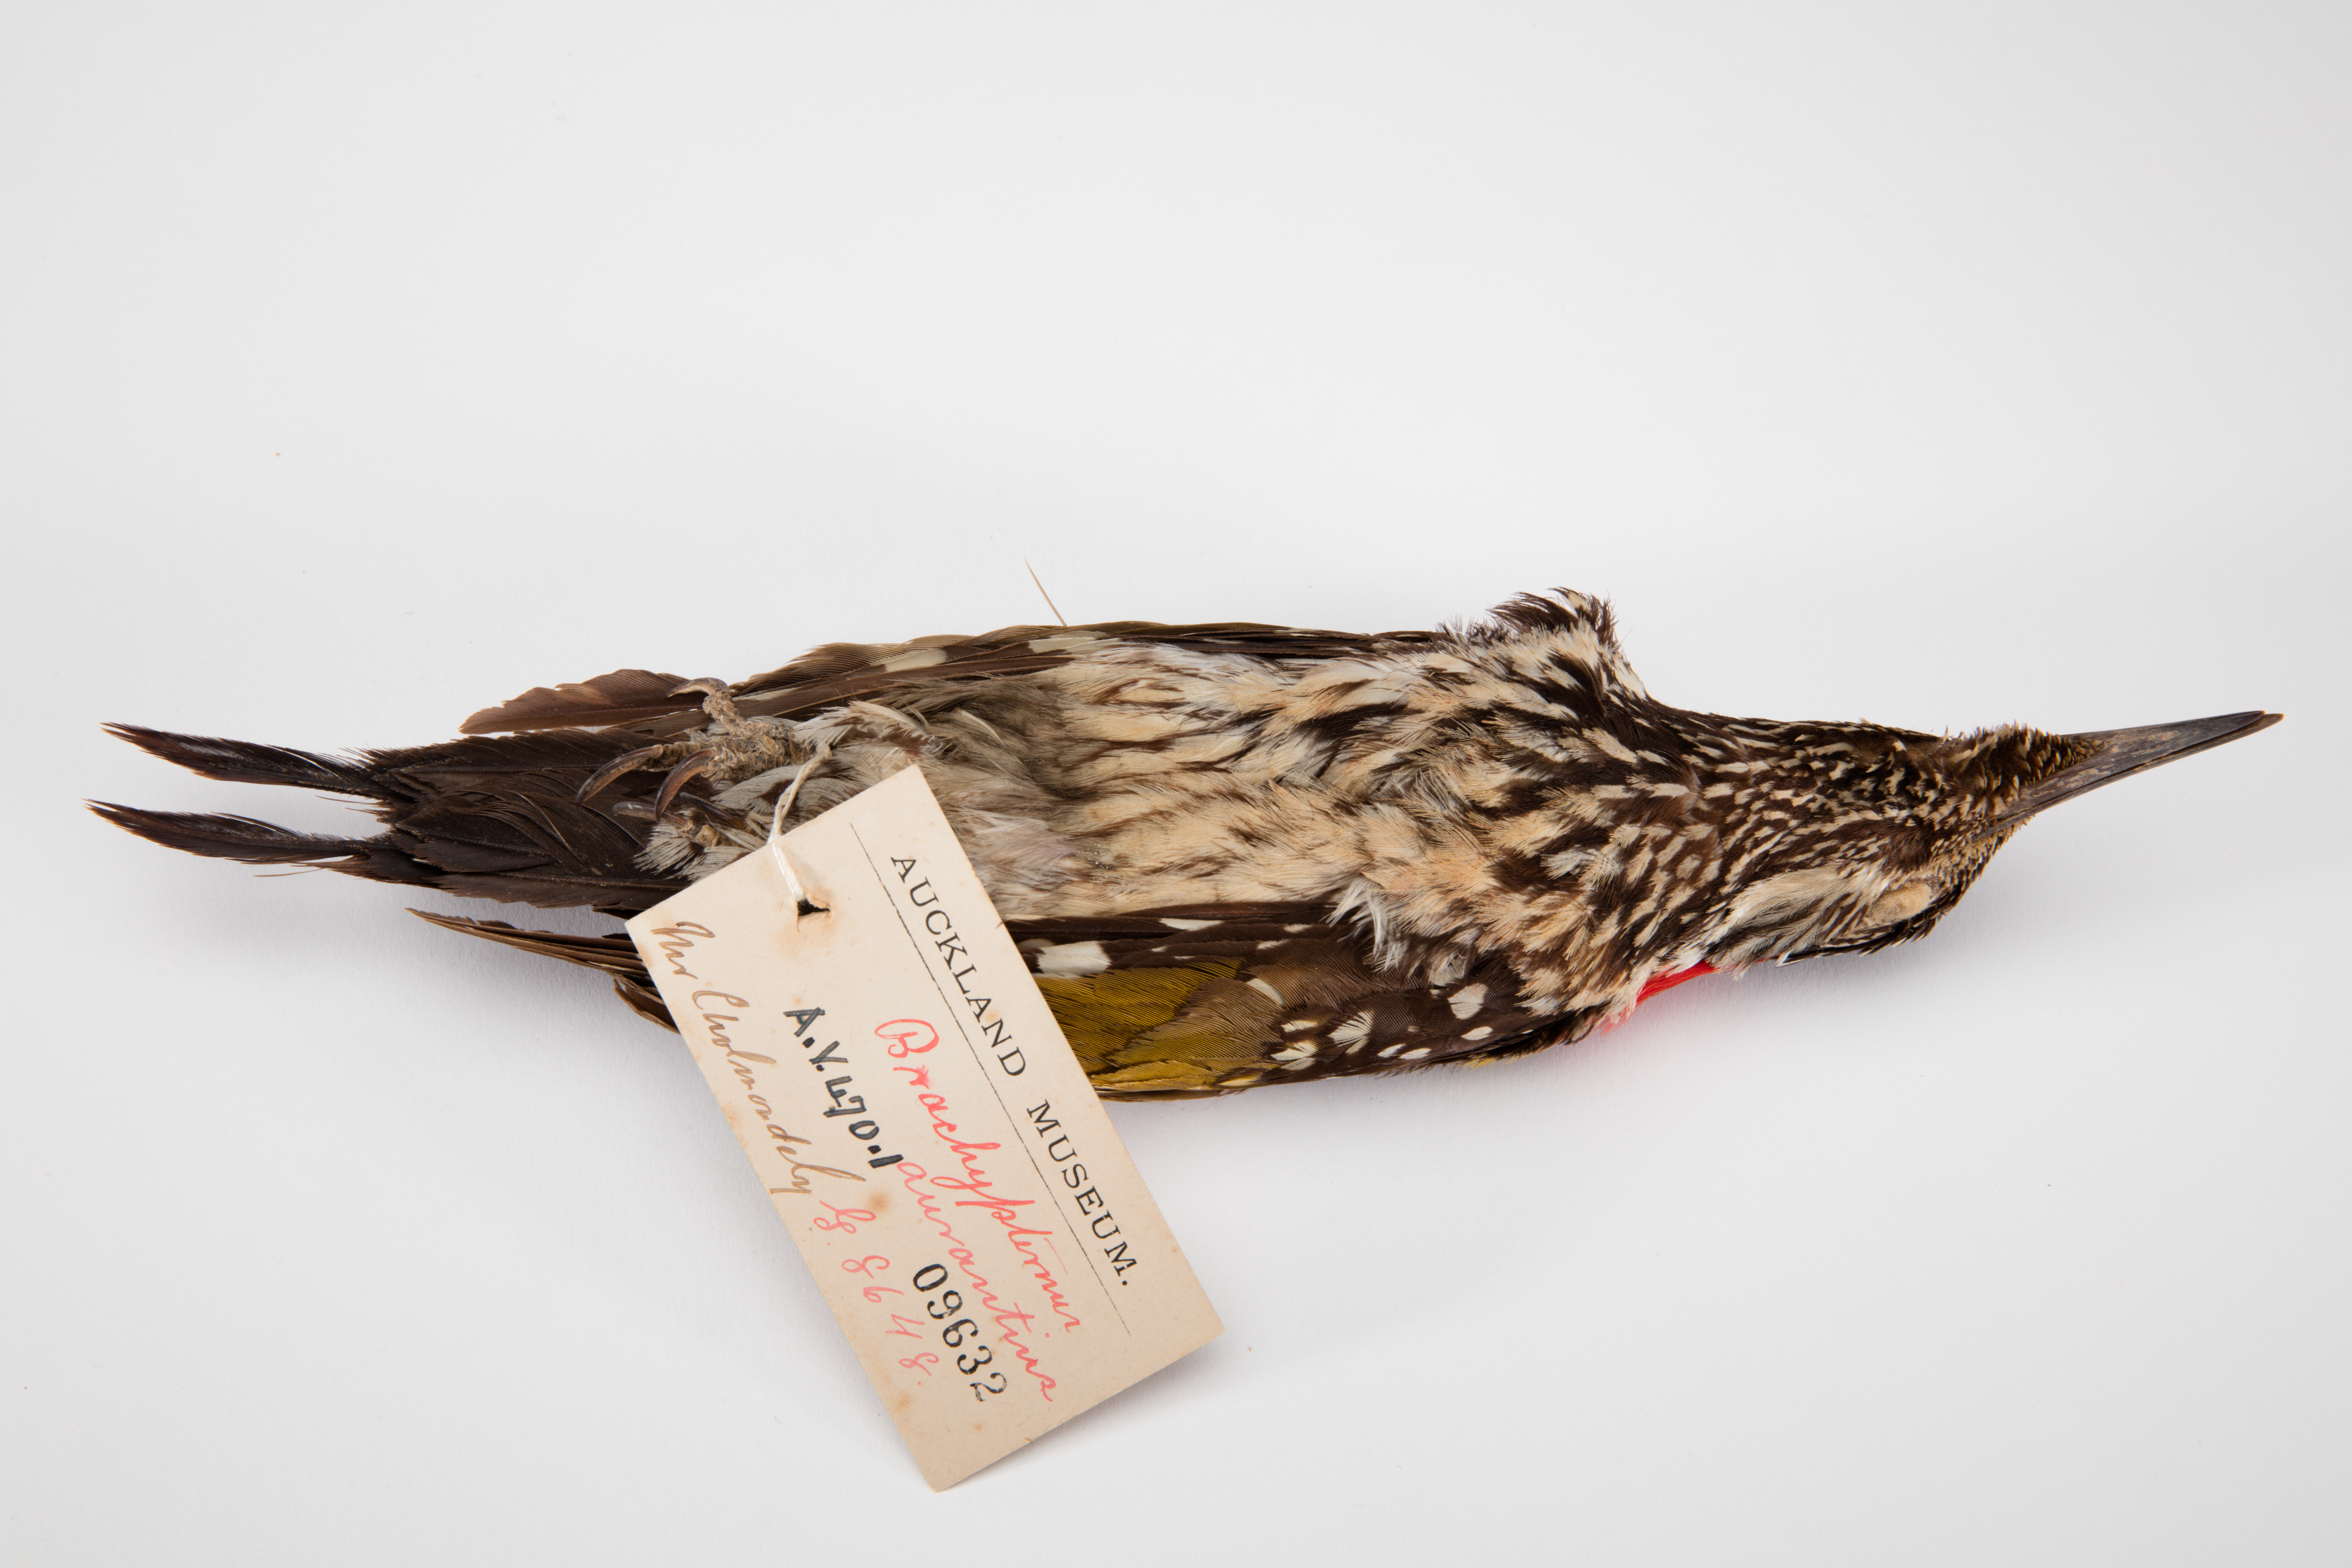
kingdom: Animalia
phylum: Chordata
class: Aves
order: Piciformes
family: Picidae
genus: Dinopium
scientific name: Dinopium benghalense
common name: Black-rumped flameback
